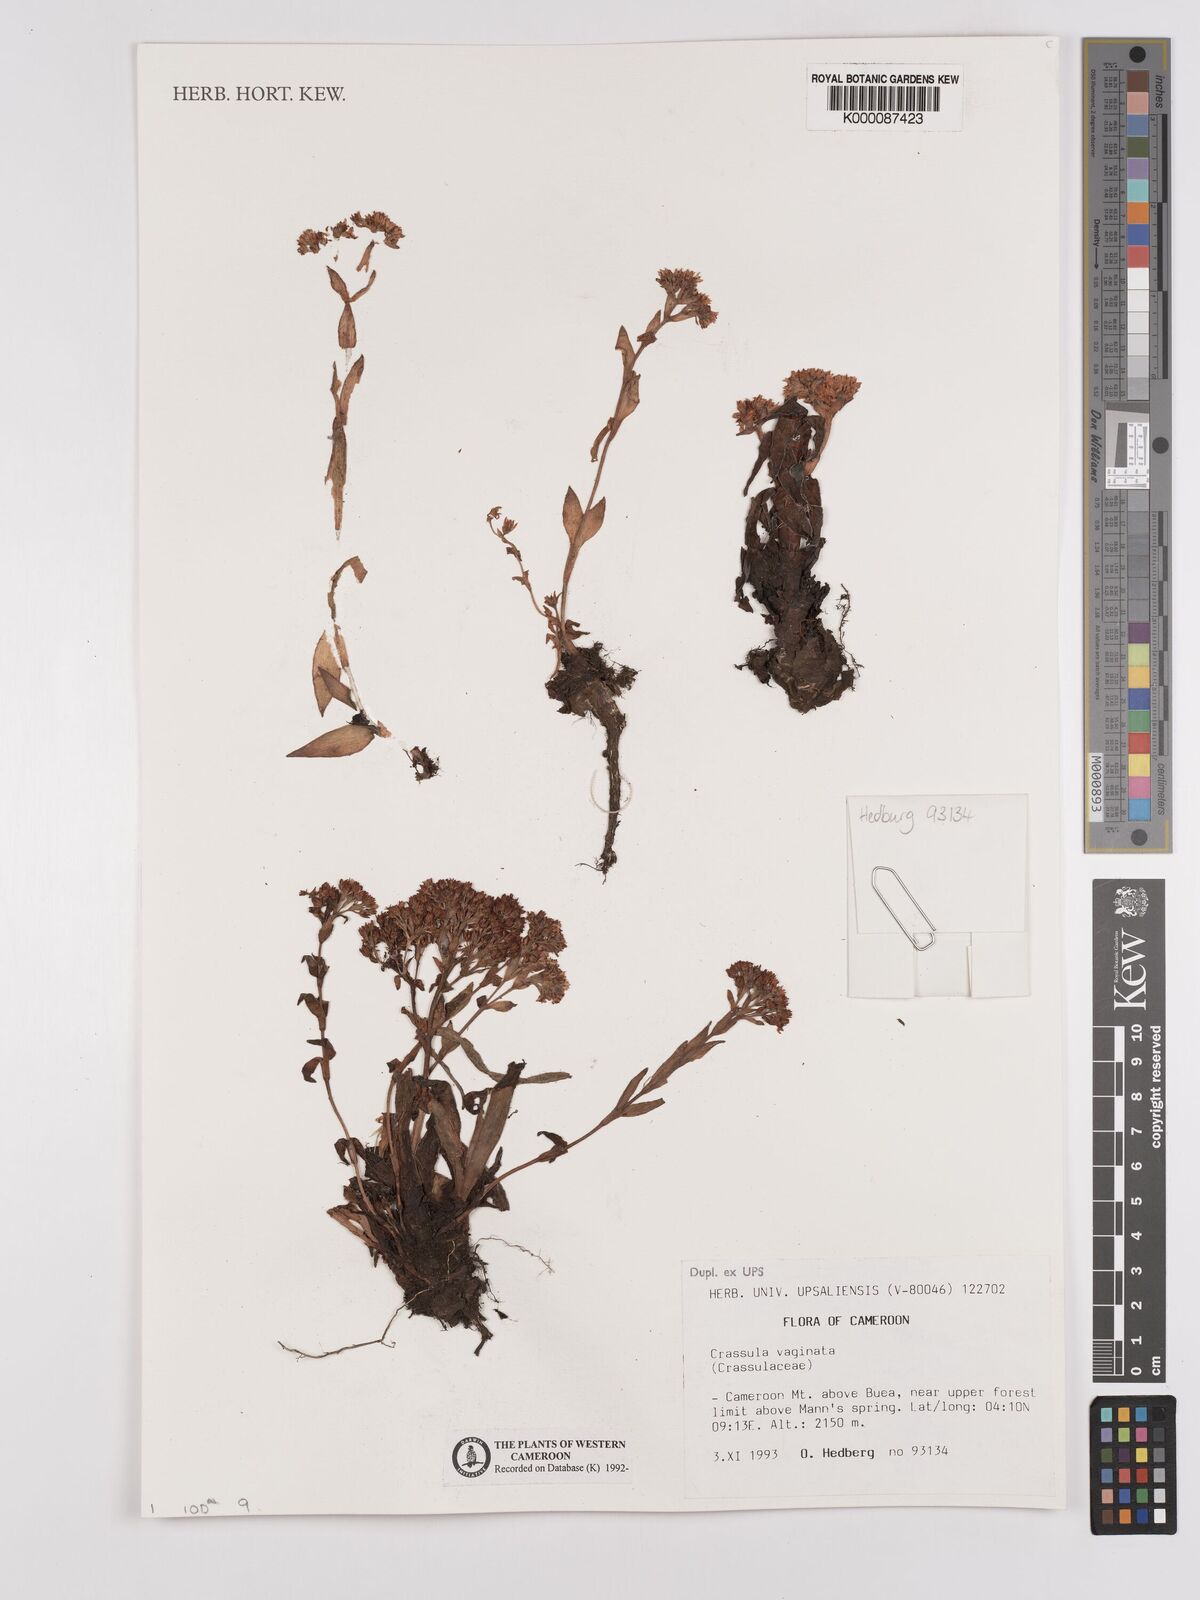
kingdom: Plantae
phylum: Tracheophyta
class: Magnoliopsida
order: Saxifragales
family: Crassulaceae
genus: Crassula
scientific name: Crassula vaginata
